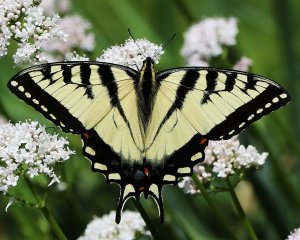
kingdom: Animalia
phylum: Arthropoda
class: Insecta
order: Lepidoptera
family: Papilionidae
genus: Pterourus
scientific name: Pterourus glaucus
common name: Eastern Tiger Swallowtail
